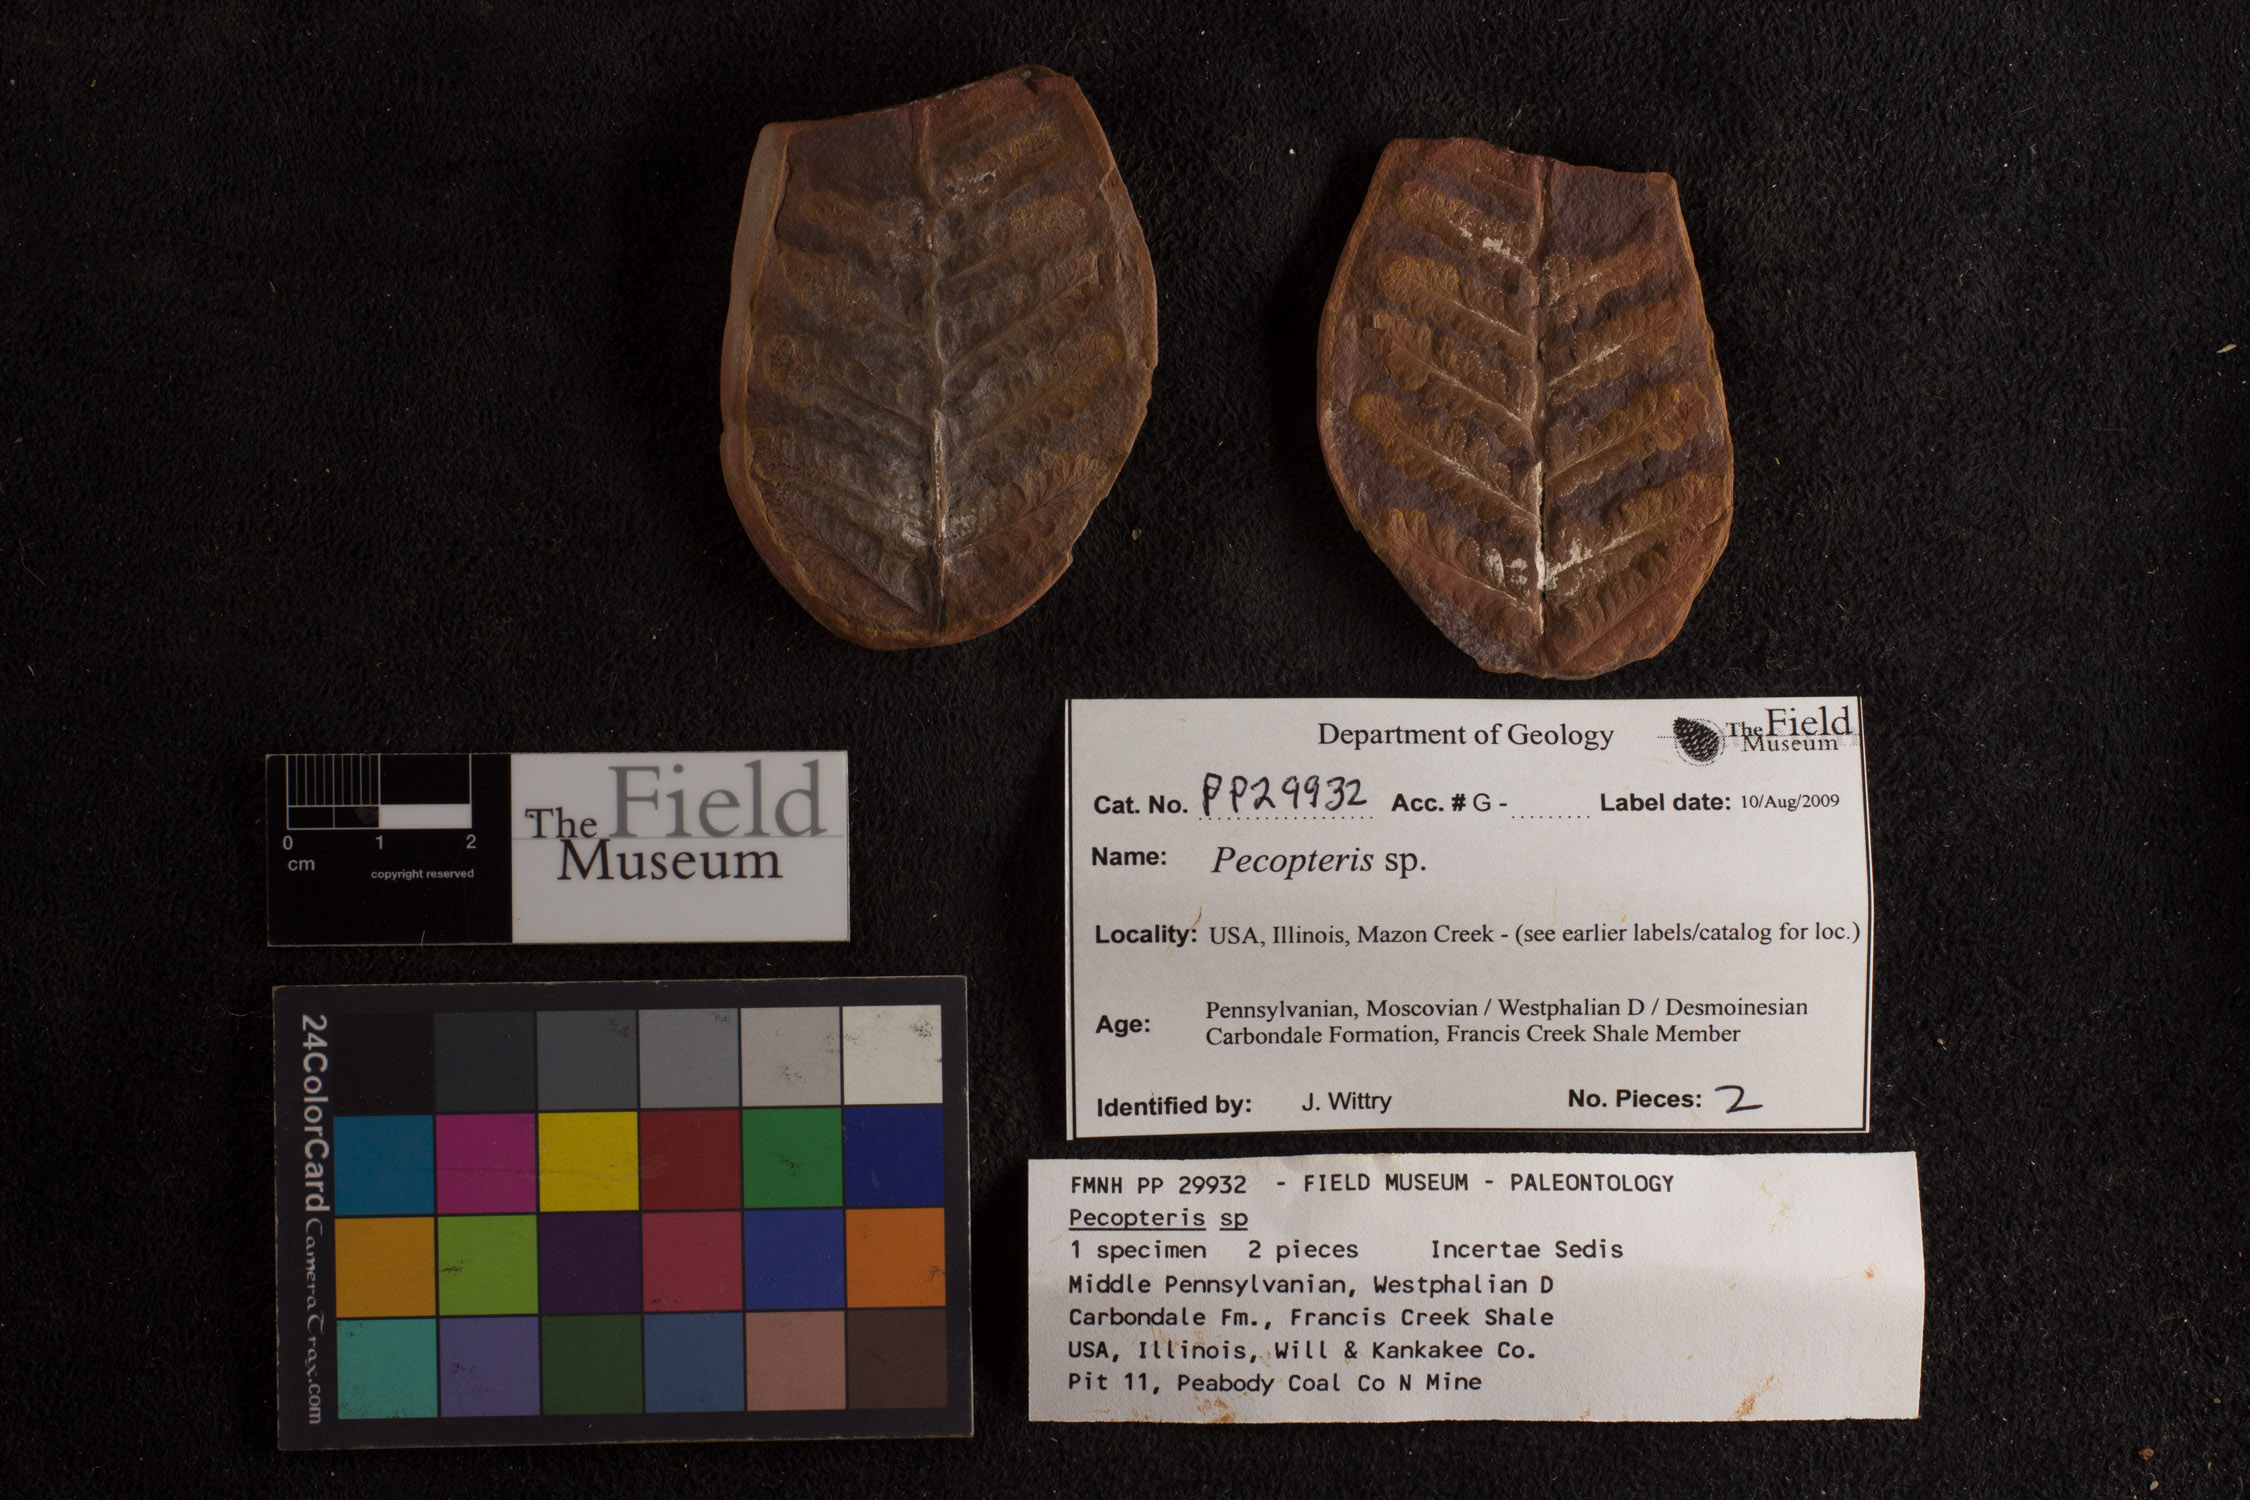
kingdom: Plantae
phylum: Tracheophyta
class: Polypodiopsida
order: Marattiales
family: Asterothecaceae
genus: Pecopteris
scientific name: Pecopteris
